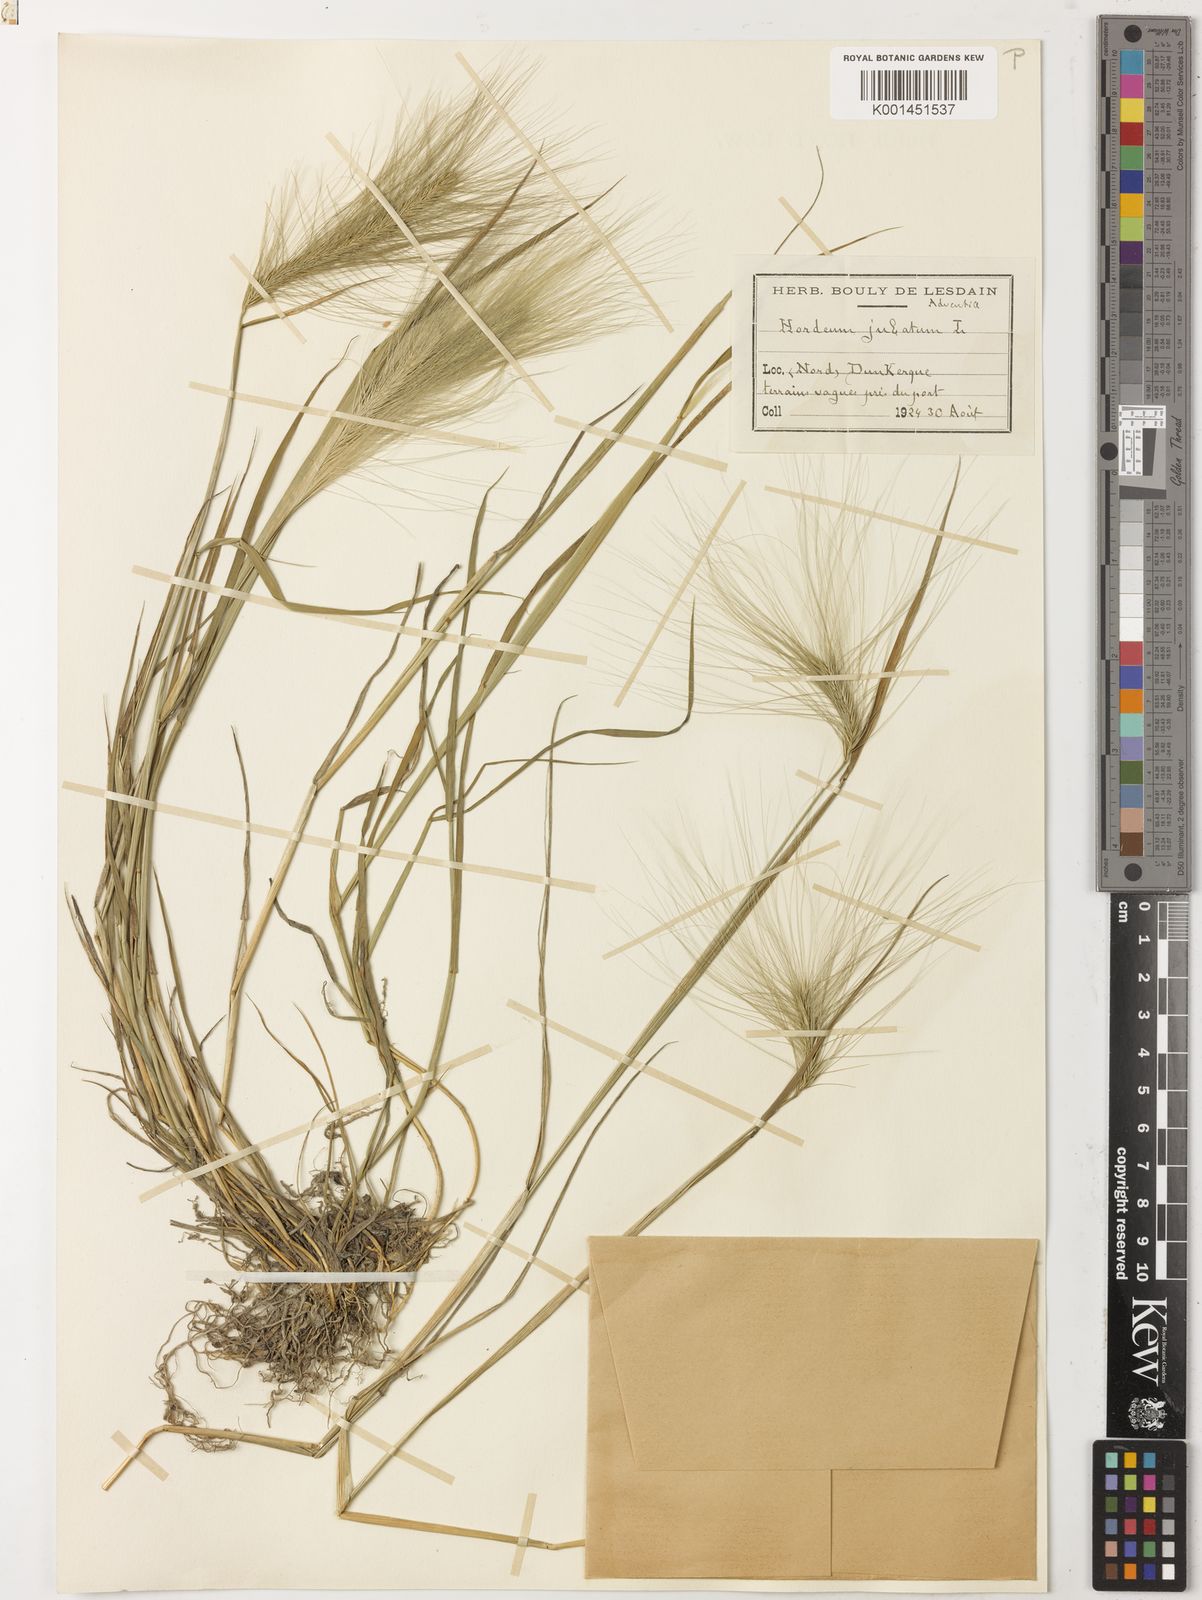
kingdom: Plantae
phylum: Tracheophyta
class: Liliopsida
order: Poales
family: Poaceae
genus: Hordeum
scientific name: Hordeum jubatum
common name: Foxtail barley
